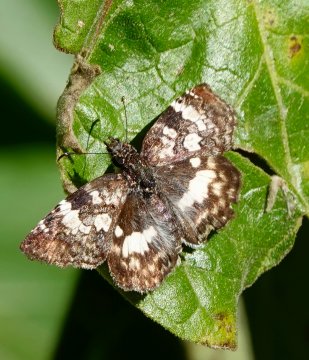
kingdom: Animalia
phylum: Arthropoda
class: Insecta
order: Lepidoptera
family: Hesperiidae
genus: Chiomara
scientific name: Chiomara asychis
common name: White-patched Skipper
